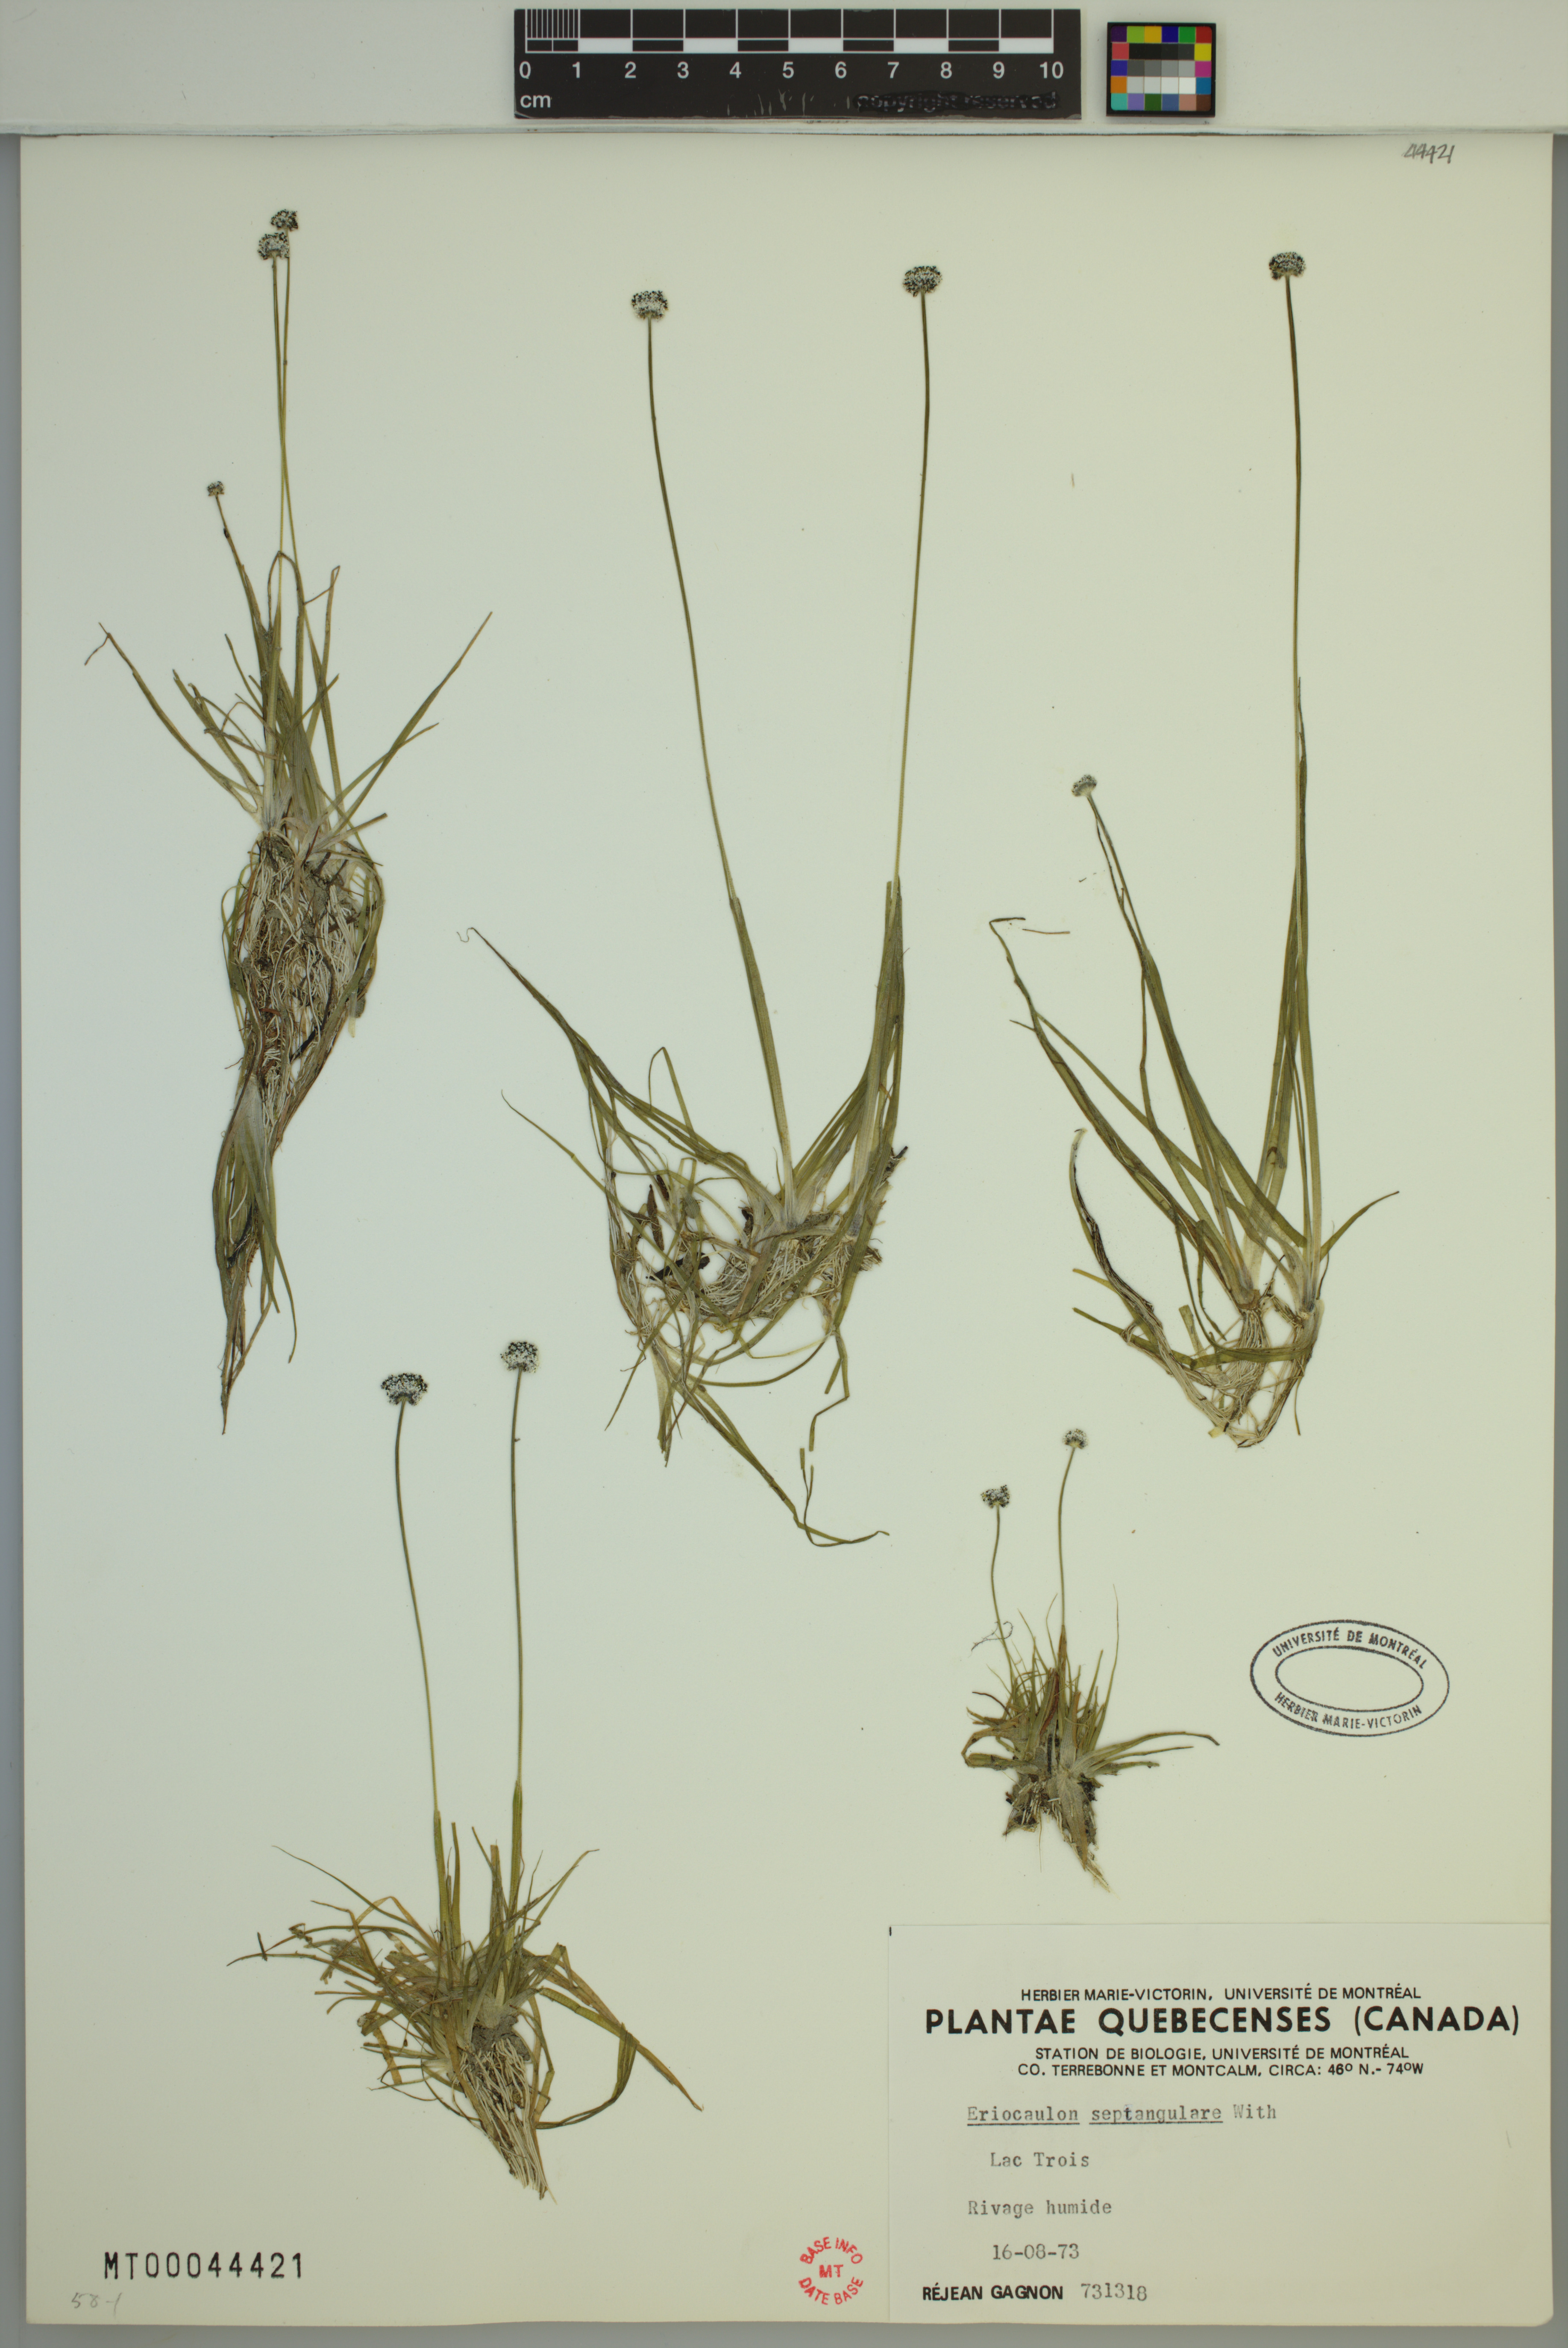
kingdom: Plantae
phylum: Tracheophyta
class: Liliopsida
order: Poales
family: Eriocaulaceae
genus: Eriocaulon
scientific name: Eriocaulon aquaticum
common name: Pipewort
